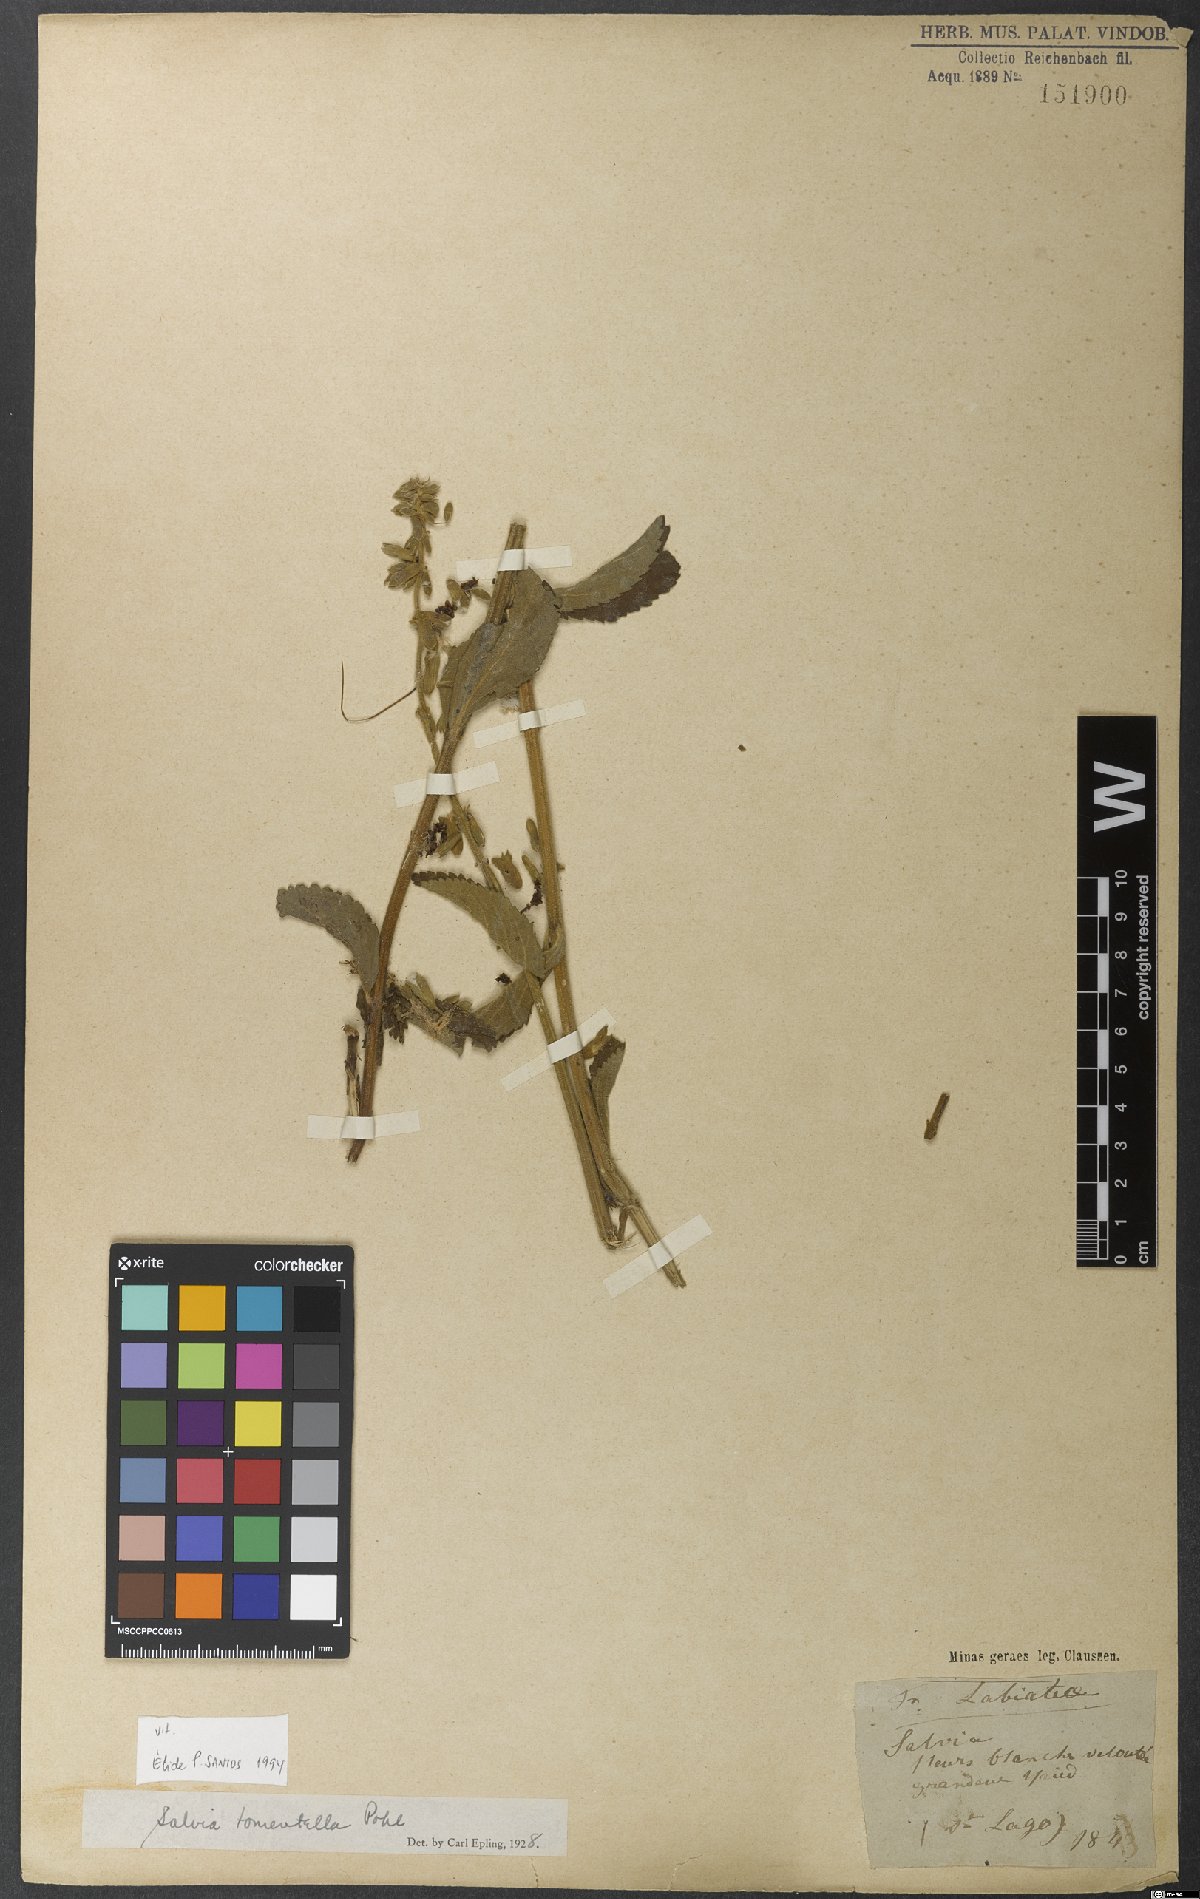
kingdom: Plantae
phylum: Tracheophyta
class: Magnoliopsida
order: Lamiales
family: Lamiaceae
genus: Salvia
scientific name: Salvia tomentella
